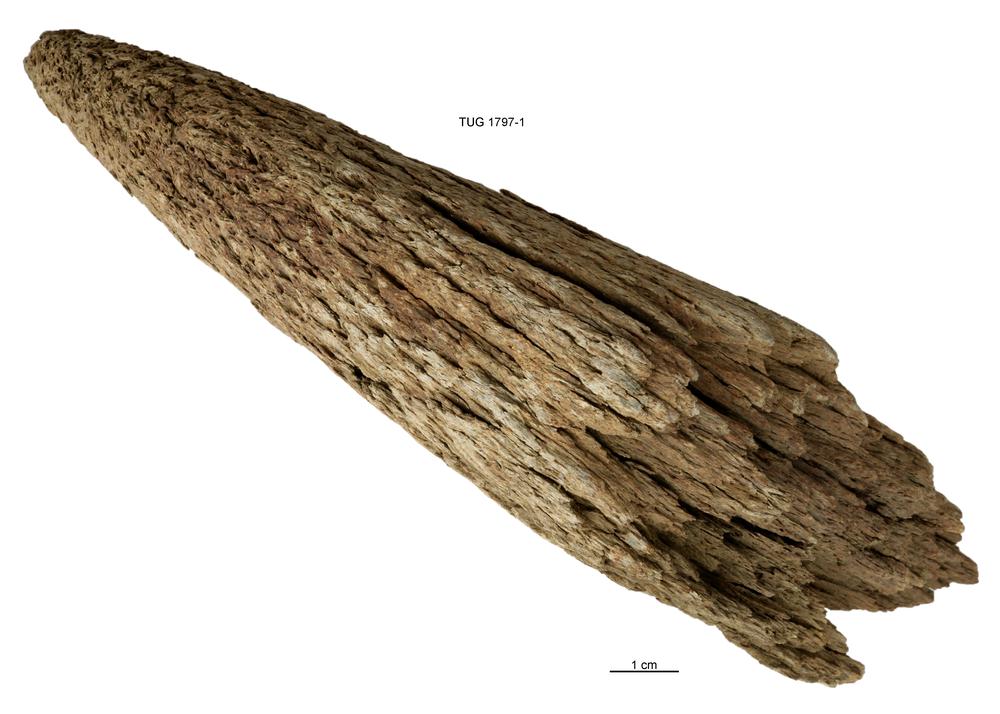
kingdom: Animalia
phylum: Chordata
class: Mammalia
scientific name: Mammalia
